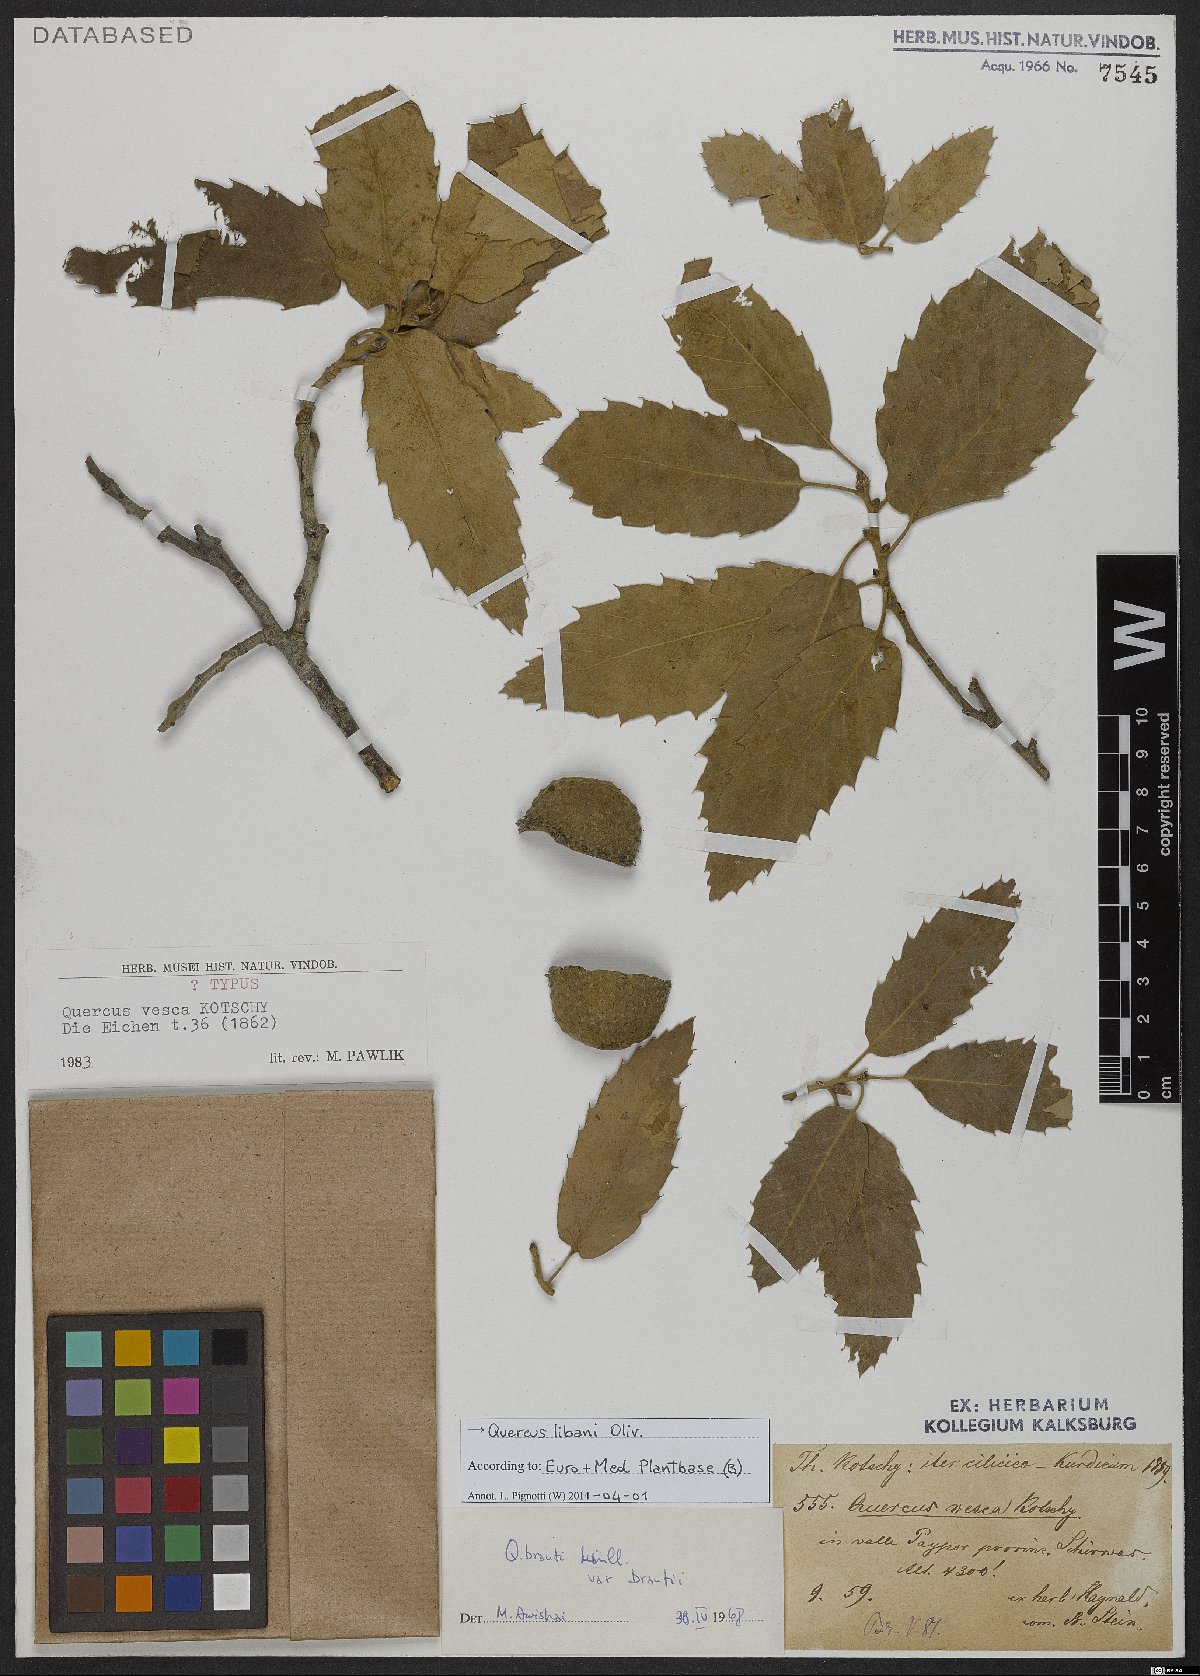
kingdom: Plantae
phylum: Tracheophyta
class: Magnoliopsida
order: Fagales
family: Fagaceae
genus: Quercus
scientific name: Quercus libani
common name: Lebanon oak
